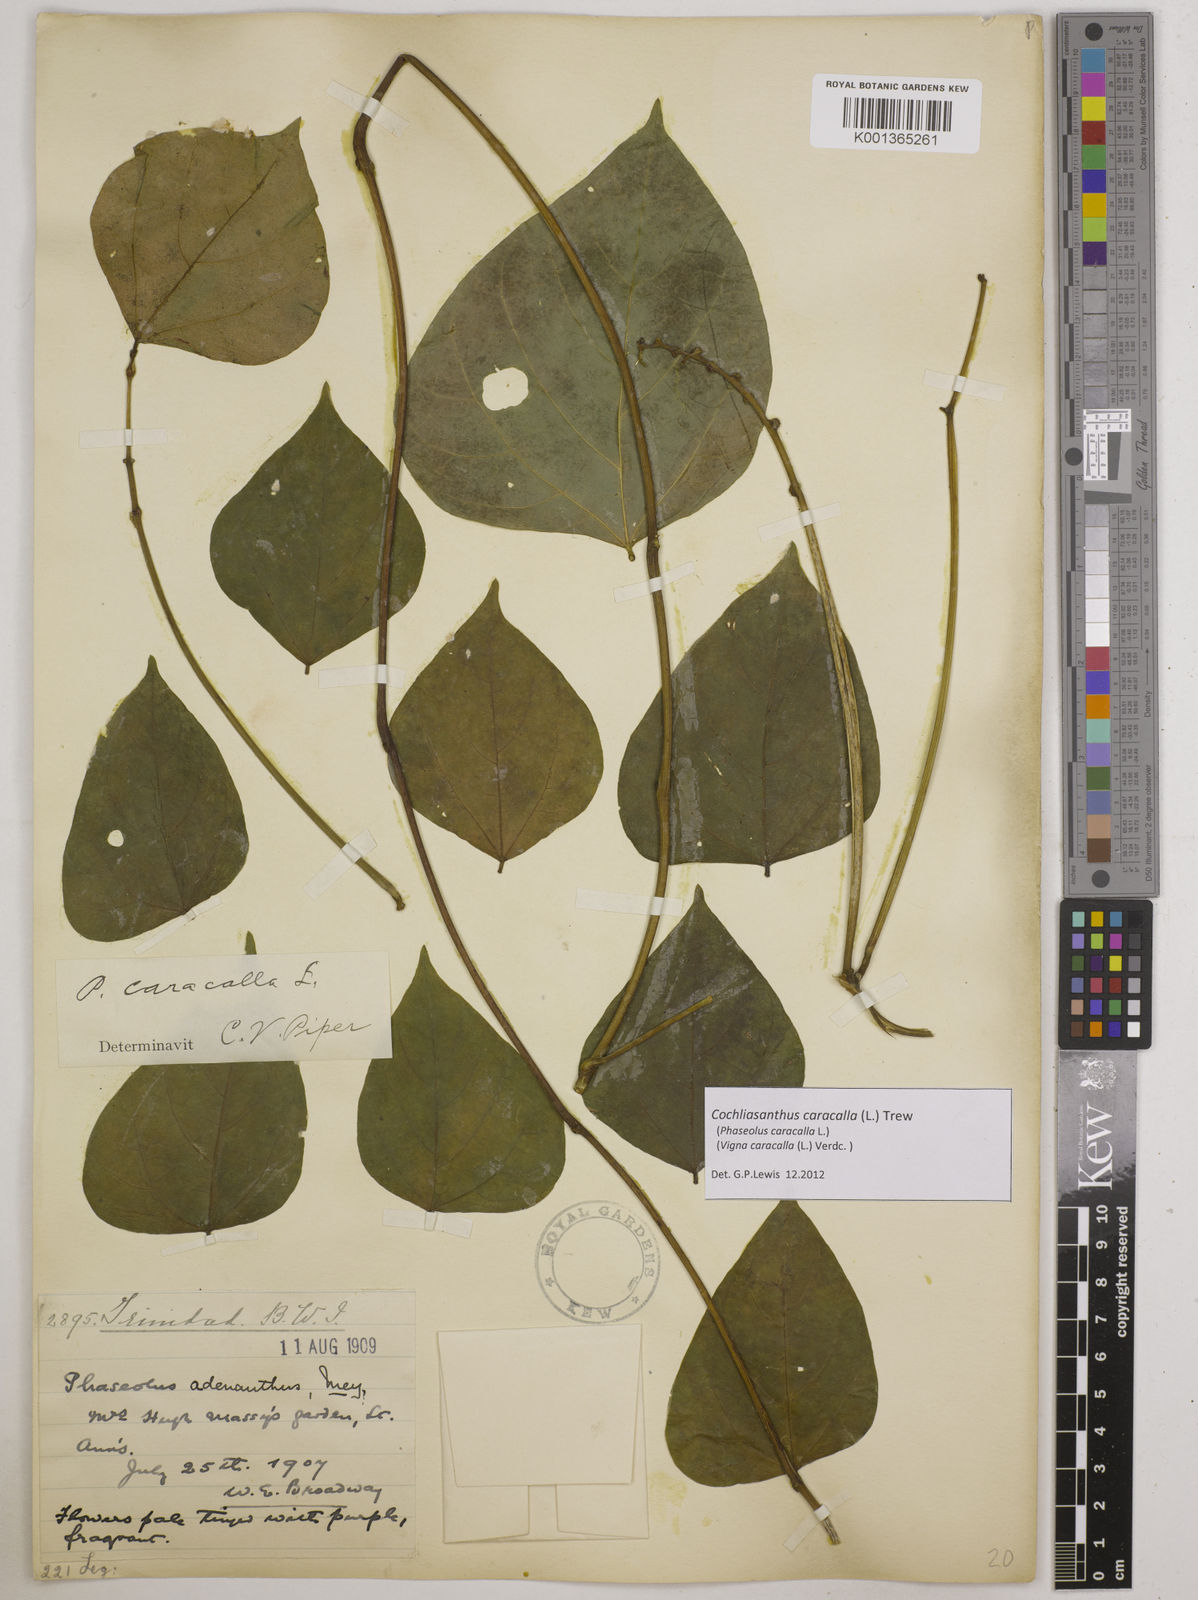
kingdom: Plantae
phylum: Tracheophyta
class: Magnoliopsida
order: Fabales
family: Fabaceae
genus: Cochliasanthus
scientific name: Cochliasanthus caracalla
